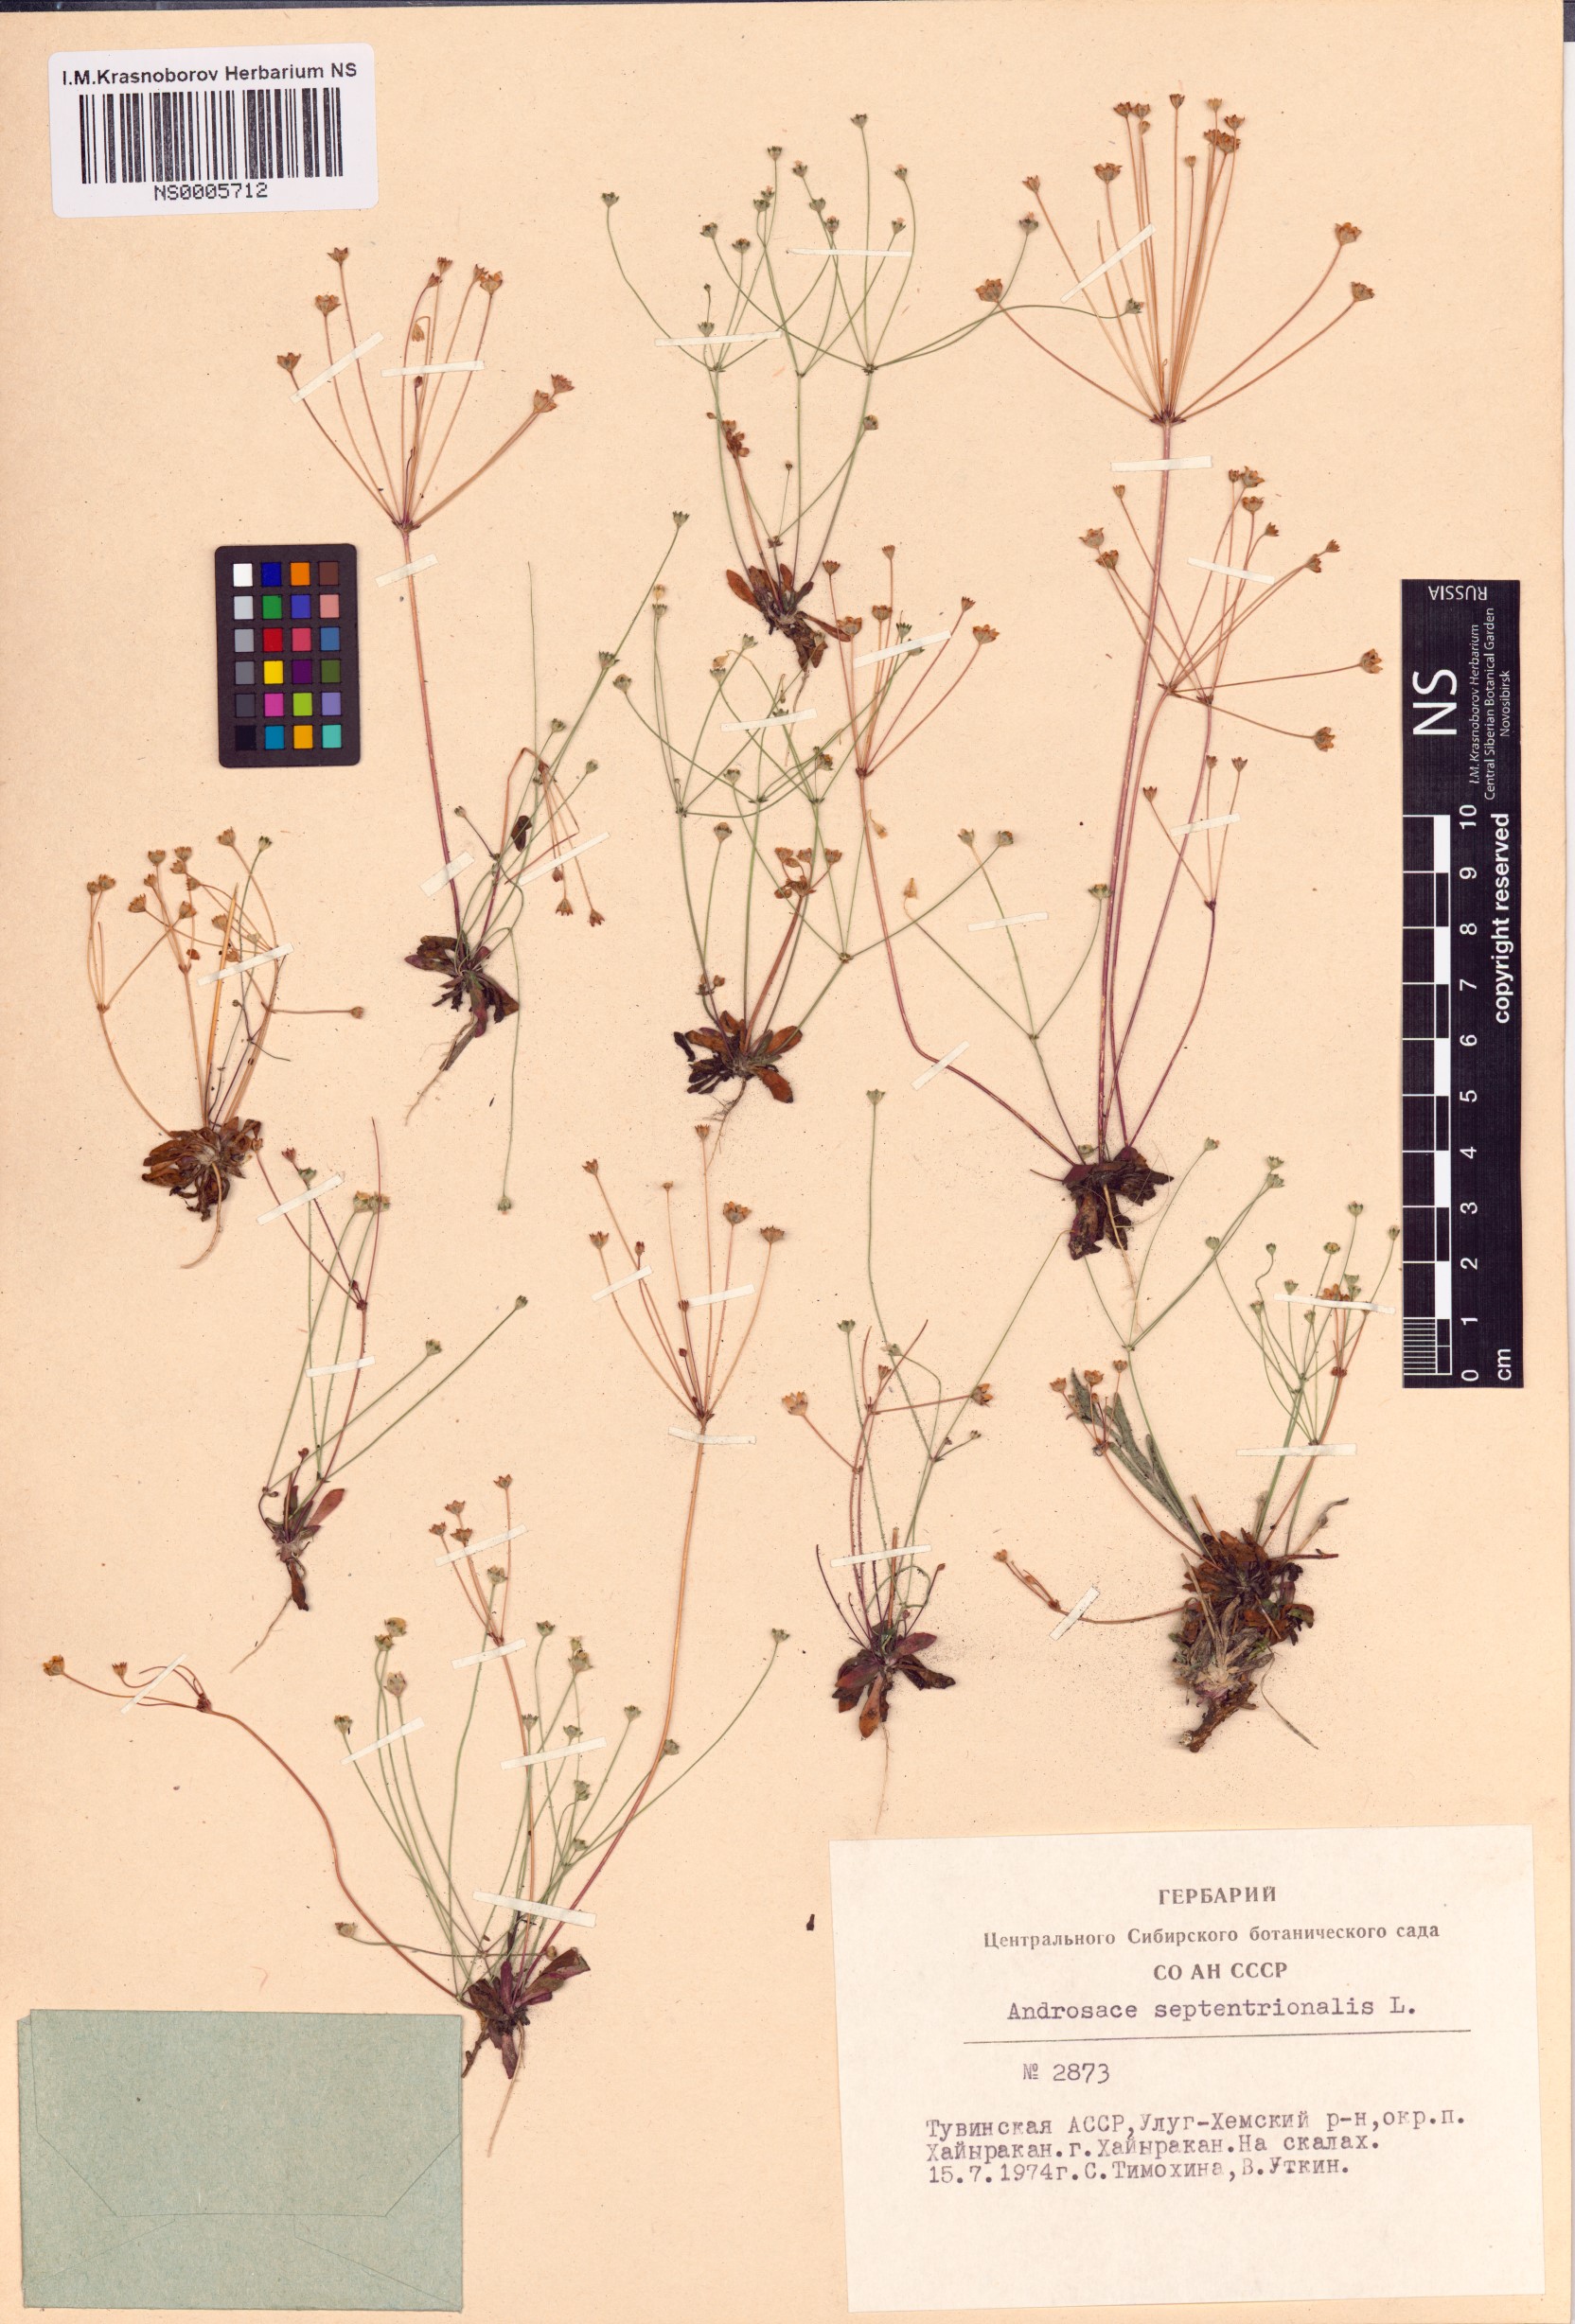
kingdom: Plantae
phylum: Tracheophyta
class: Magnoliopsida
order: Ericales
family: Primulaceae
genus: Androsace
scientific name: Androsace septentrionalis
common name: Hairy northern fairy-candelabra
